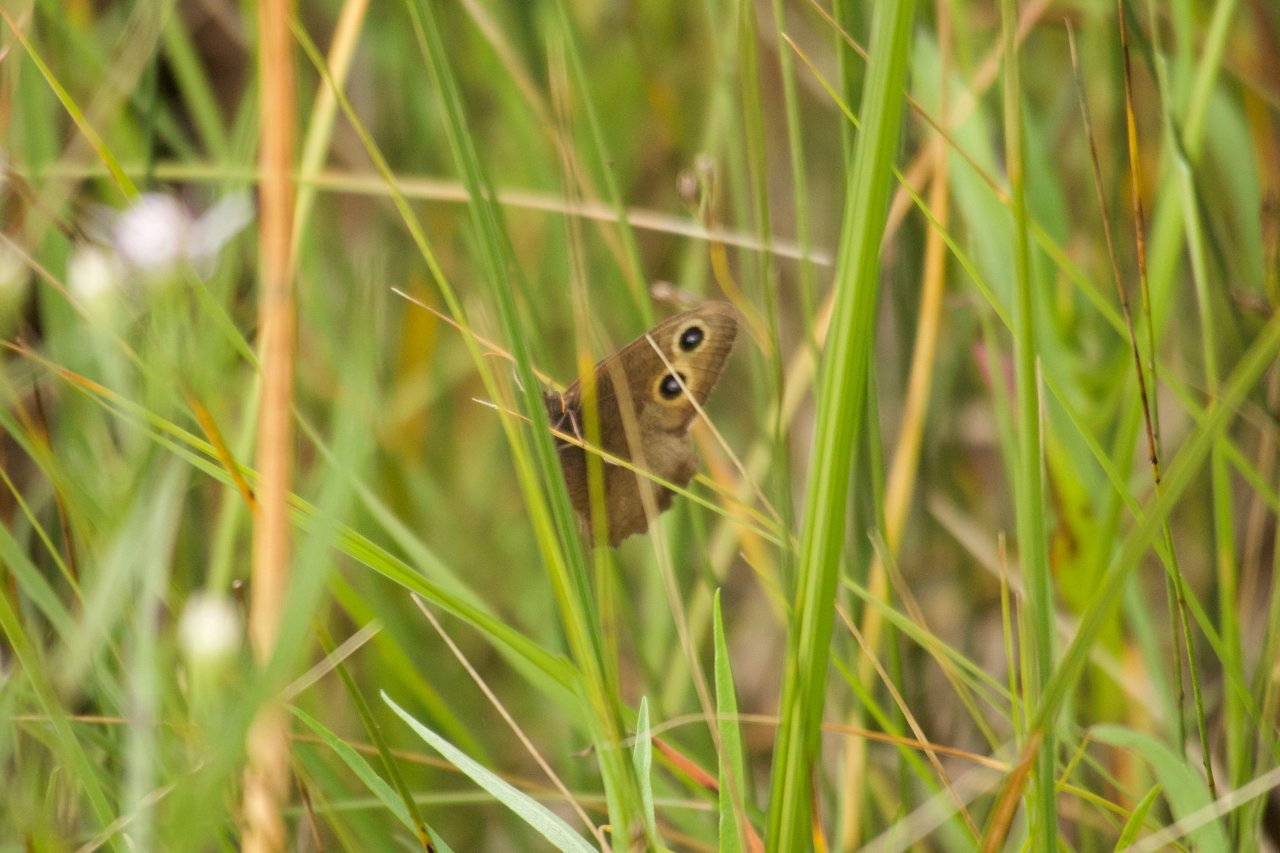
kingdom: Animalia
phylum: Arthropoda
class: Insecta
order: Lepidoptera
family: Nymphalidae
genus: Cercyonis
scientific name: Cercyonis pegala
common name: Common Wood-Nymph
